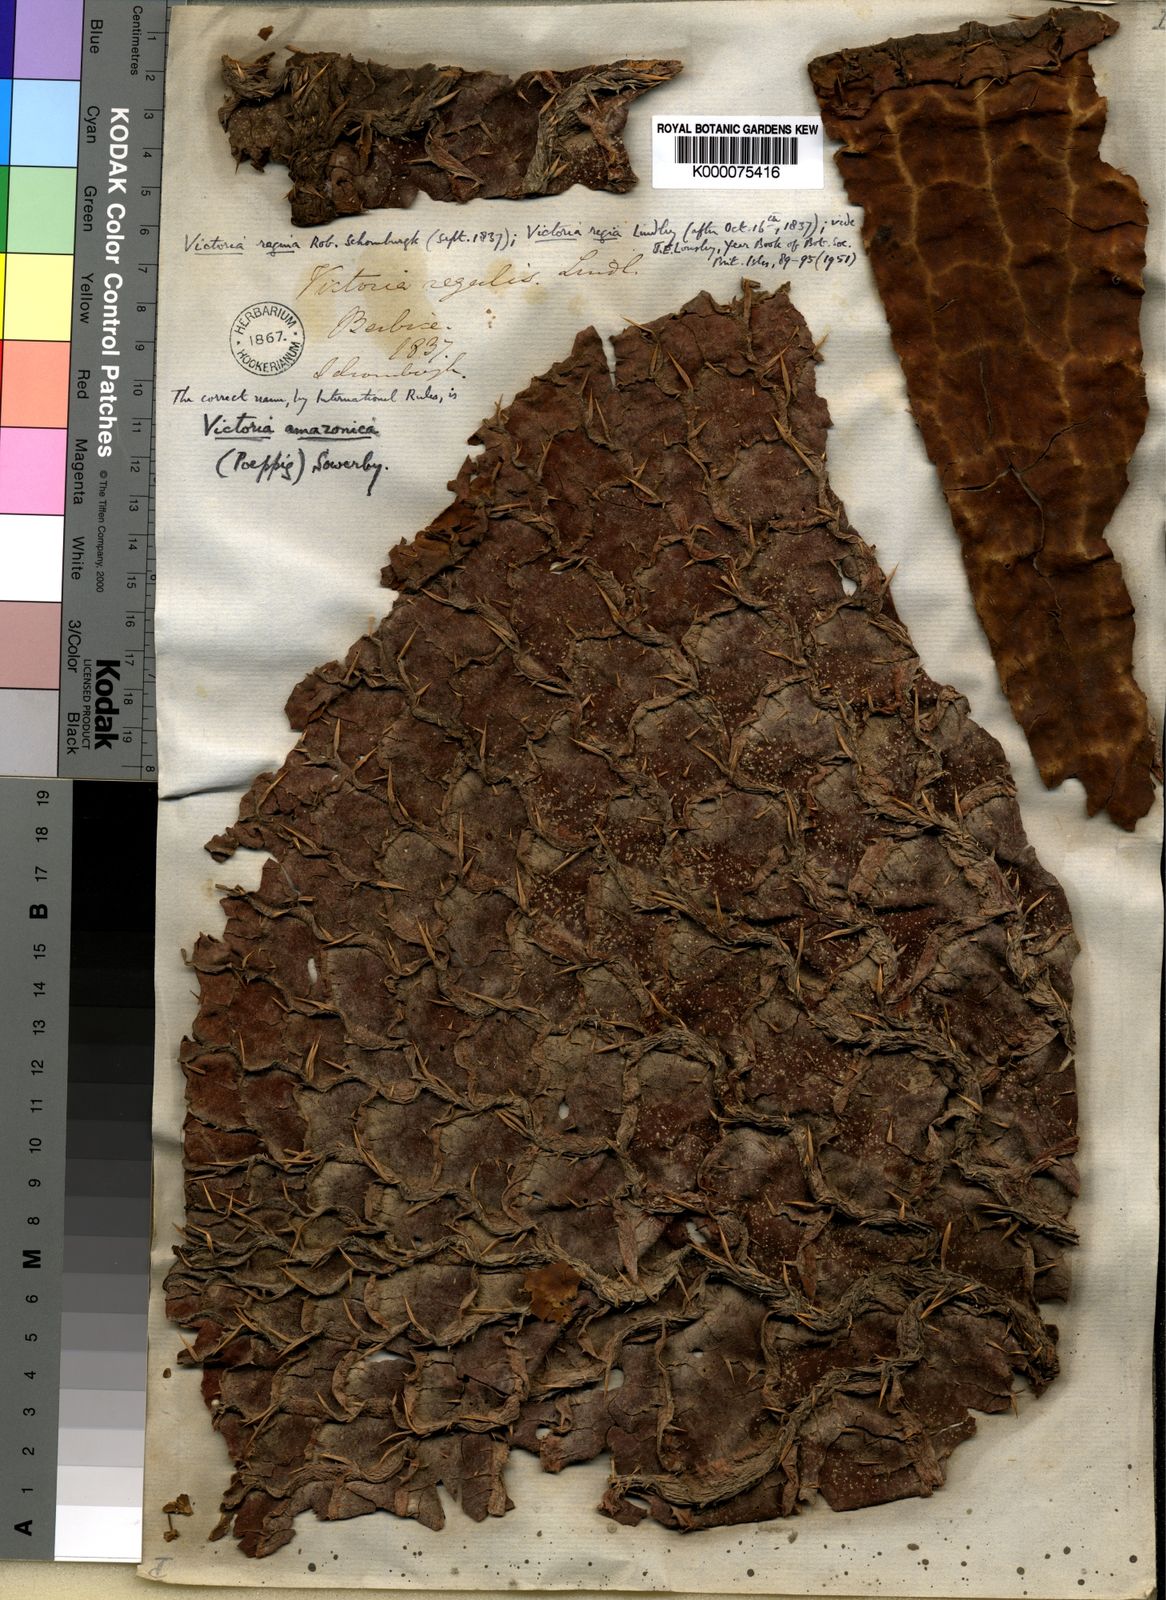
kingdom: Plantae
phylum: Tracheophyta
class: Magnoliopsida
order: Nymphaeales
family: Nymphaeaceae
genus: Victoria
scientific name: Victoria
